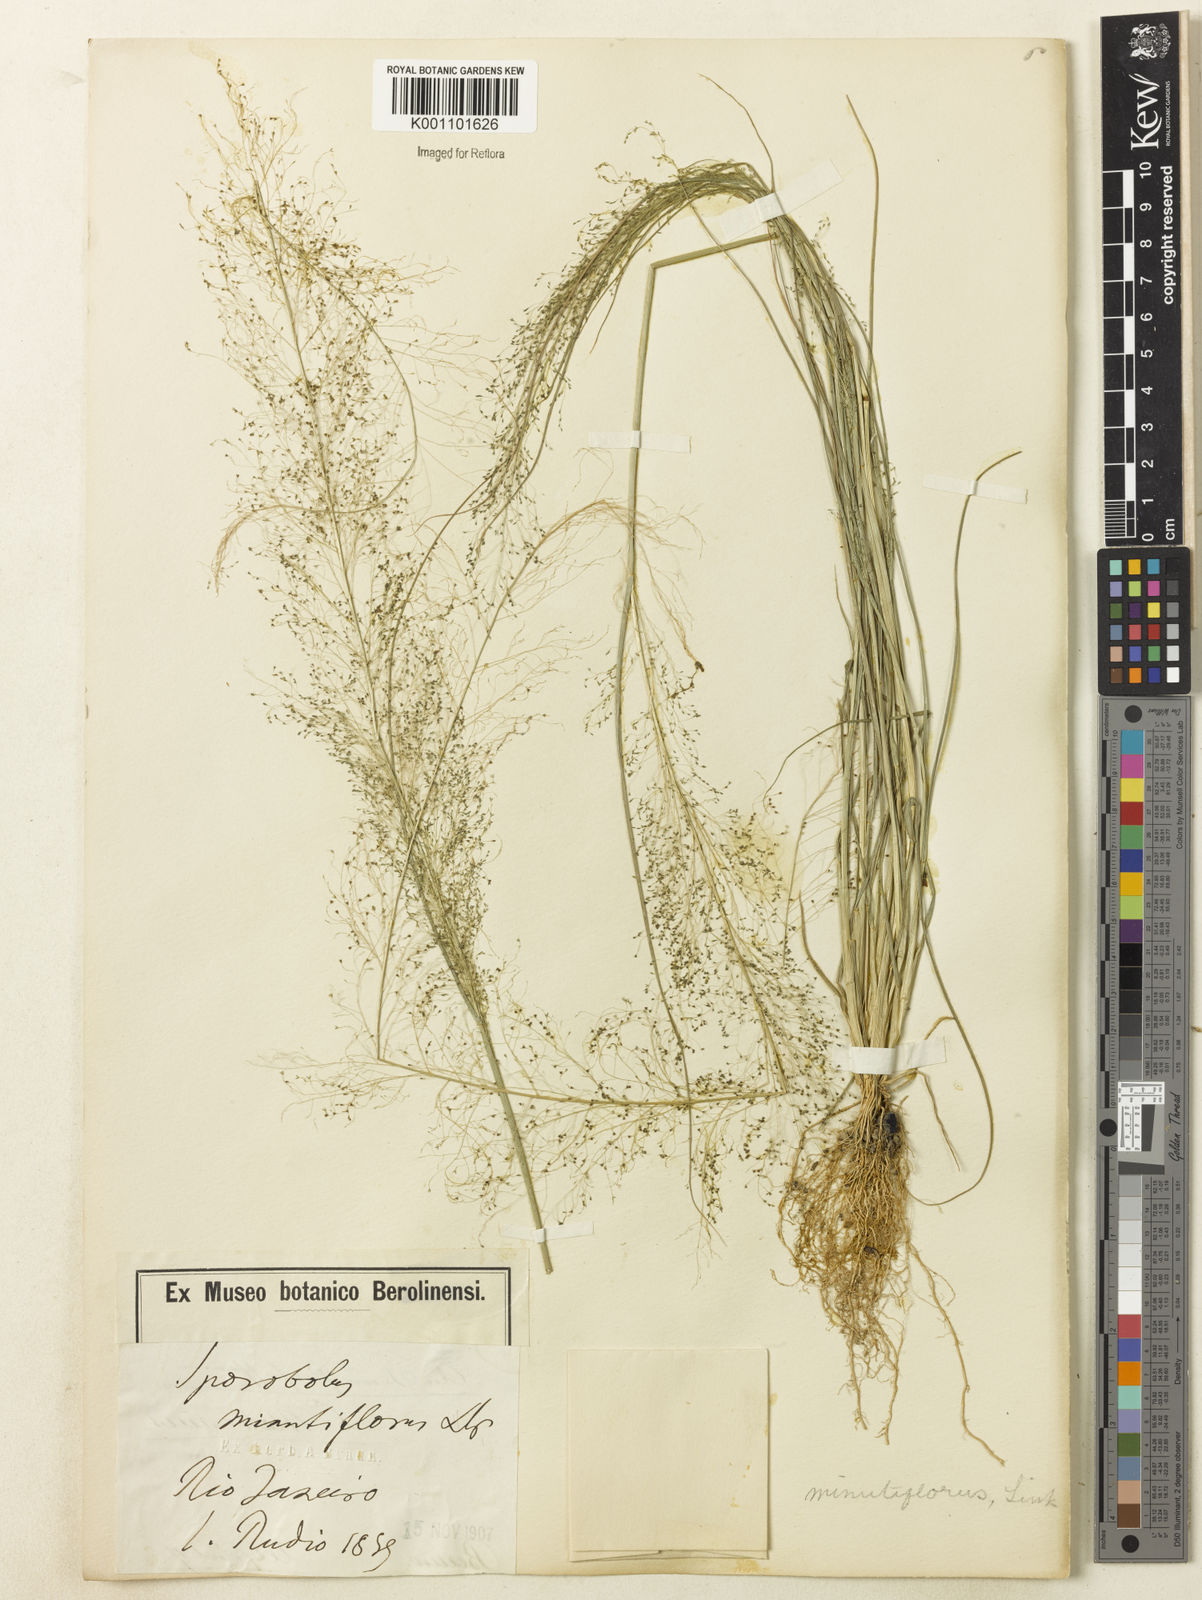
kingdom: Plantae
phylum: Tracheophyta
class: Liliopsida
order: Poales
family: Poaceae
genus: Sporobolus
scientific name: Sporobolus tenuissimus
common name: Tropical dropseed
